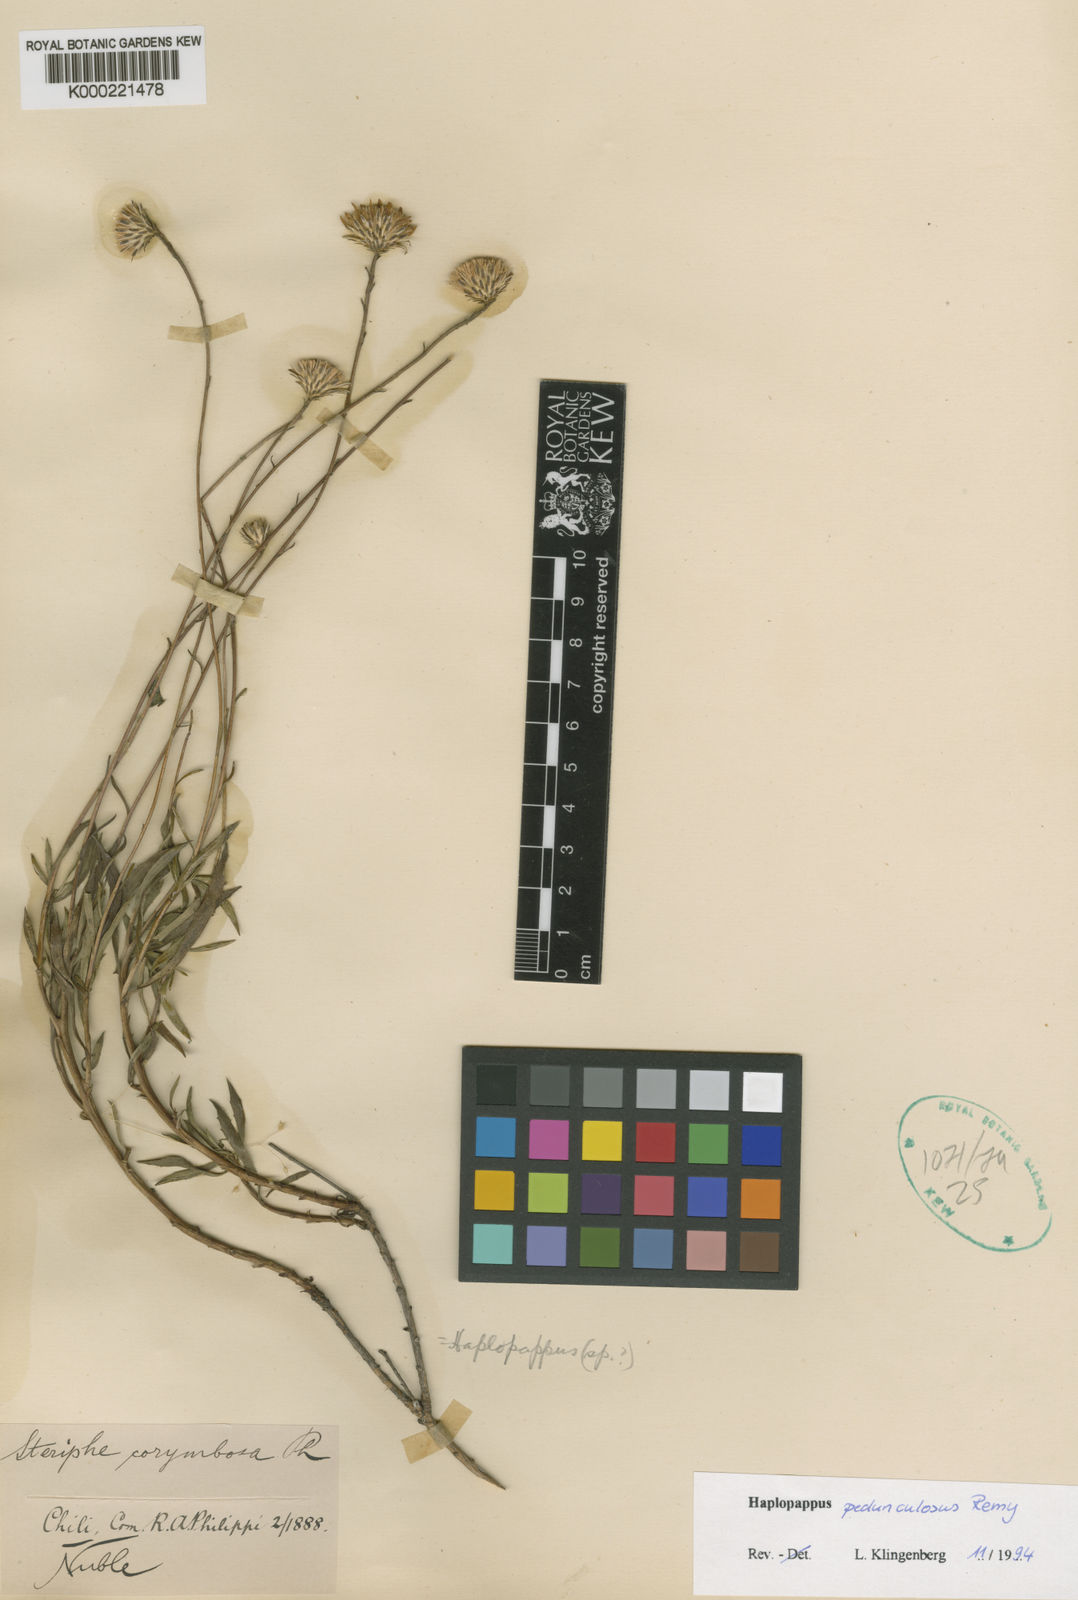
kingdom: Plantae
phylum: Tracheophyta
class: Magnoliopsida
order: Asterales
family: Asteraceae
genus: Haplopappus
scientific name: Haplopappus punctatus
